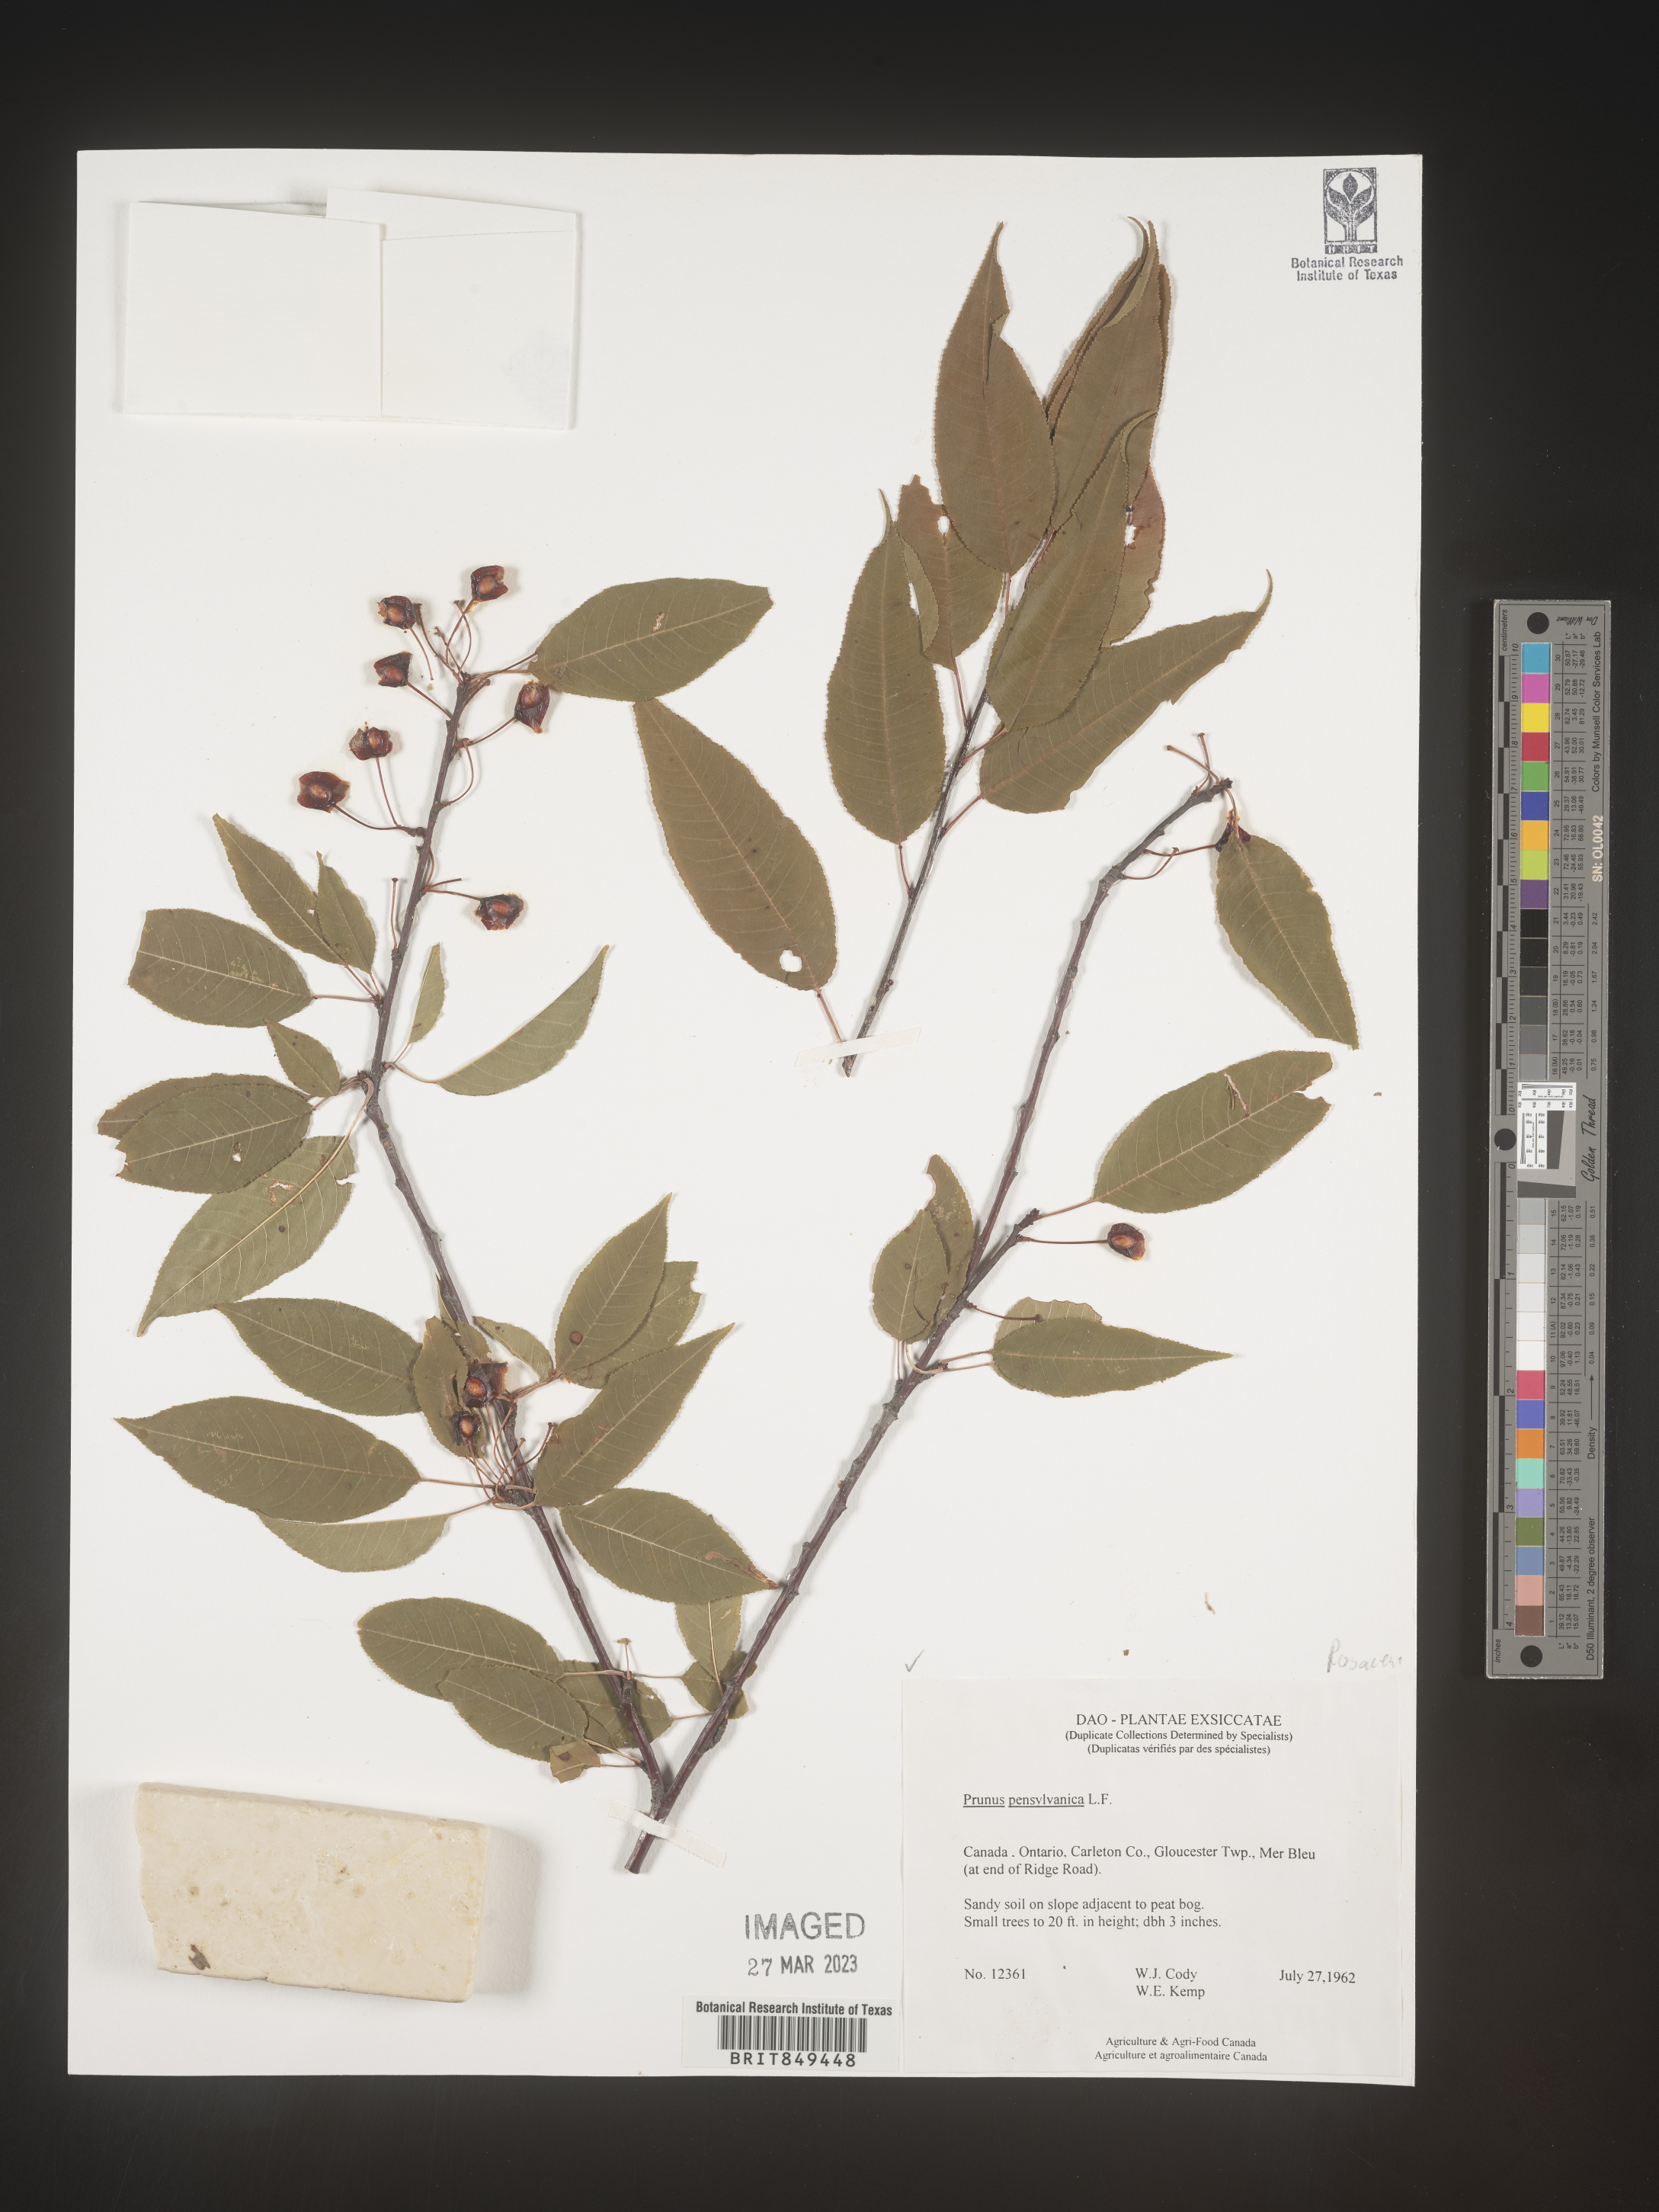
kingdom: Plantae
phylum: Tracheophyta
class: Magnoliopsida
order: Rosales
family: Rosaceae
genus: Prunus
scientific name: Prunus pensylvanica
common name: Pin cherry
